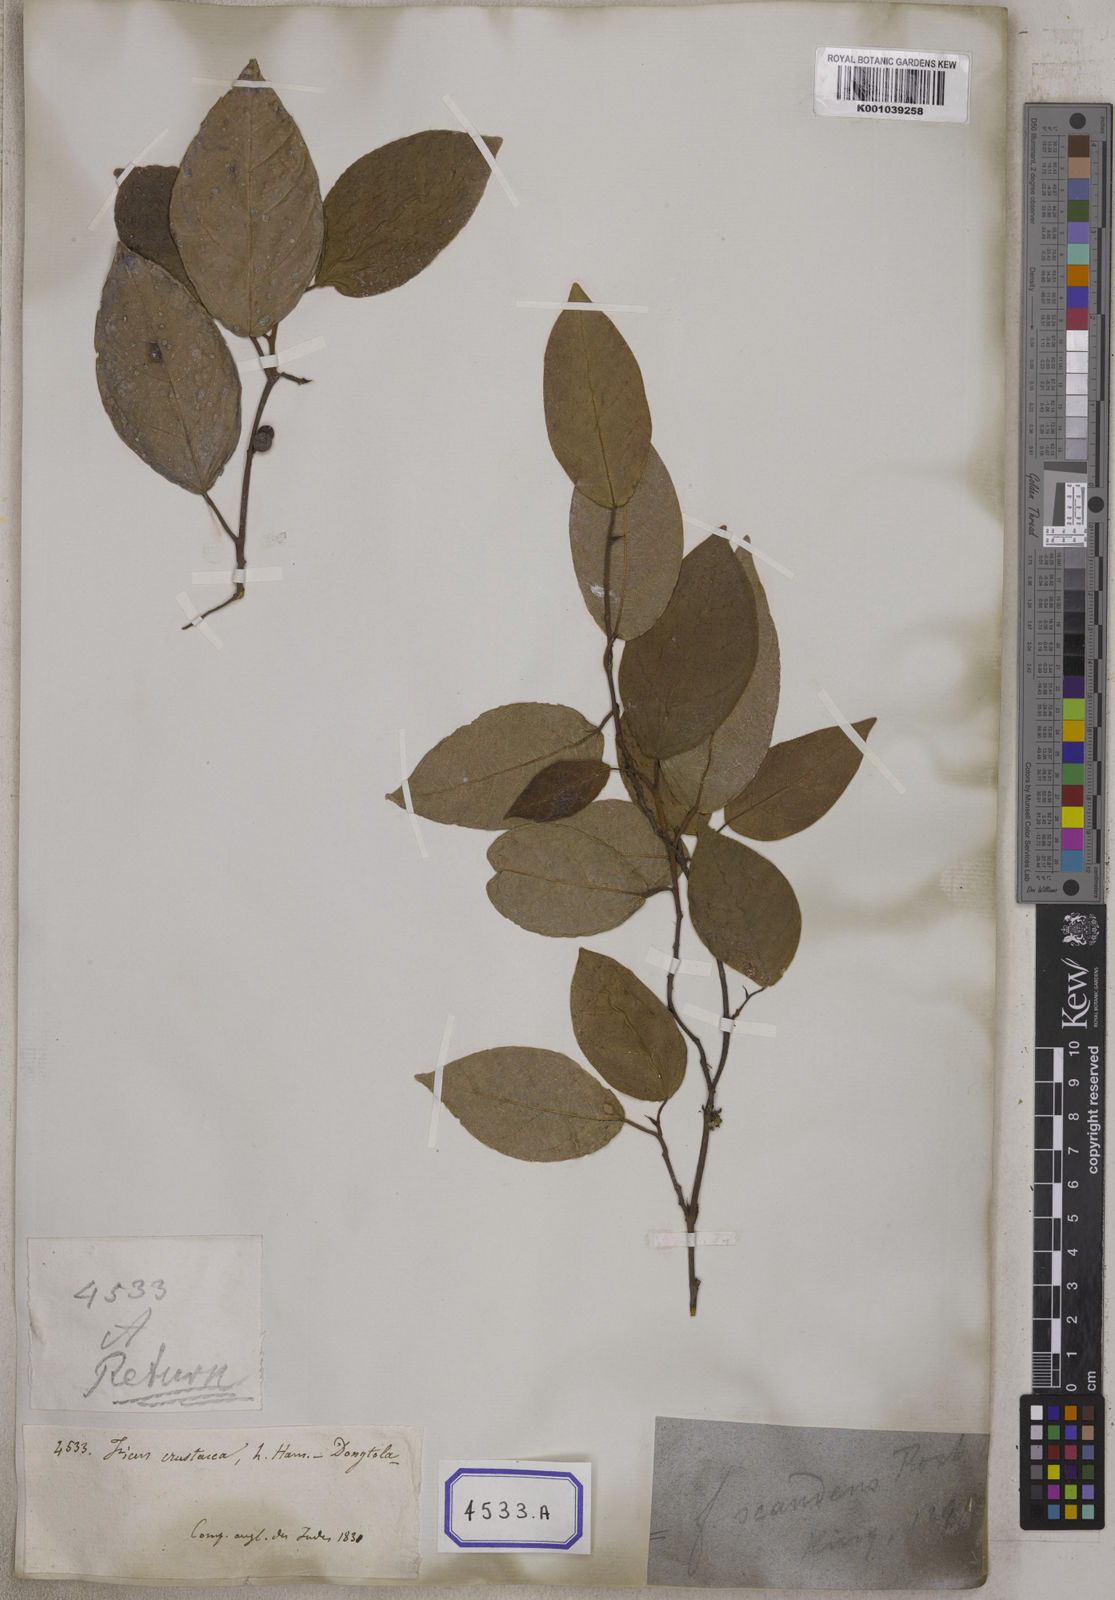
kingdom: Plantae
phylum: Tracheophyta
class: Magnoliopsida
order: Rosales
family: Moraceae
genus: Ficus
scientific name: Ficus
